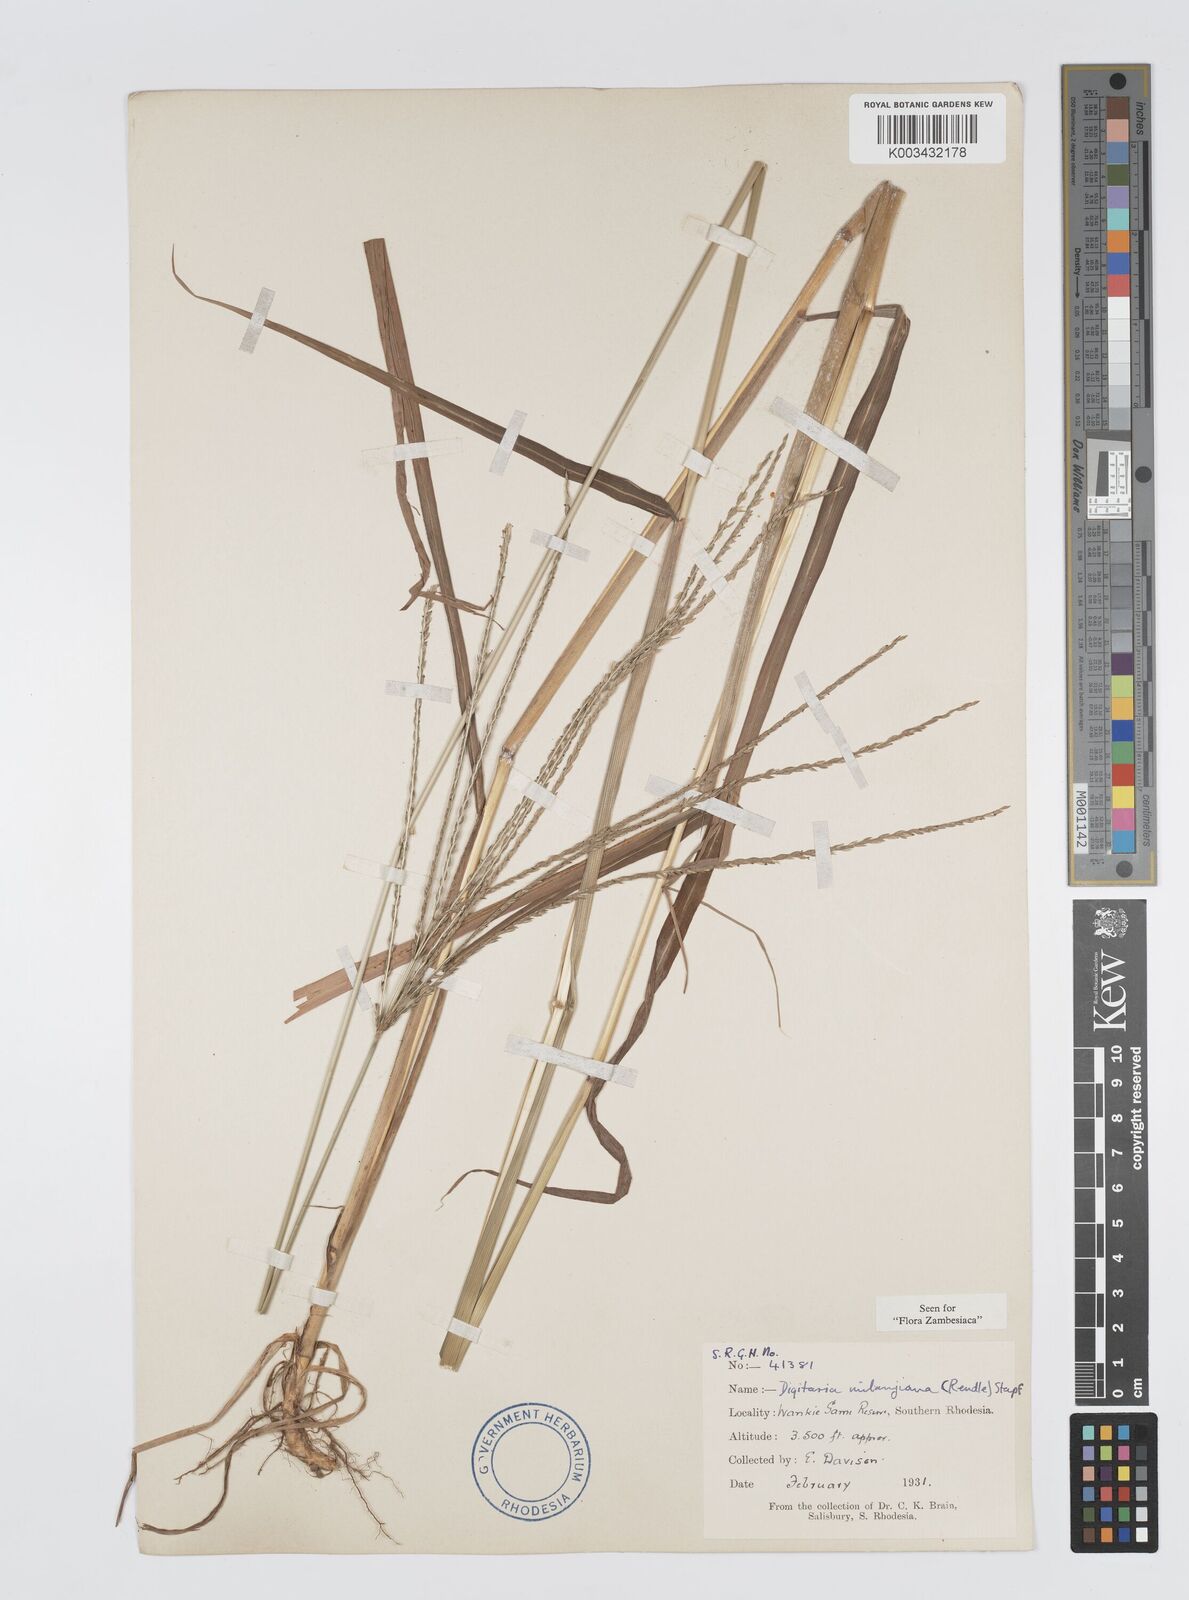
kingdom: Plantae
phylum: Tracheophyta
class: Liliopsida
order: Poales
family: Poaceae
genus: Digitaria
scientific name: Digitaria milanjiana
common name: Madagascar crabgrass
